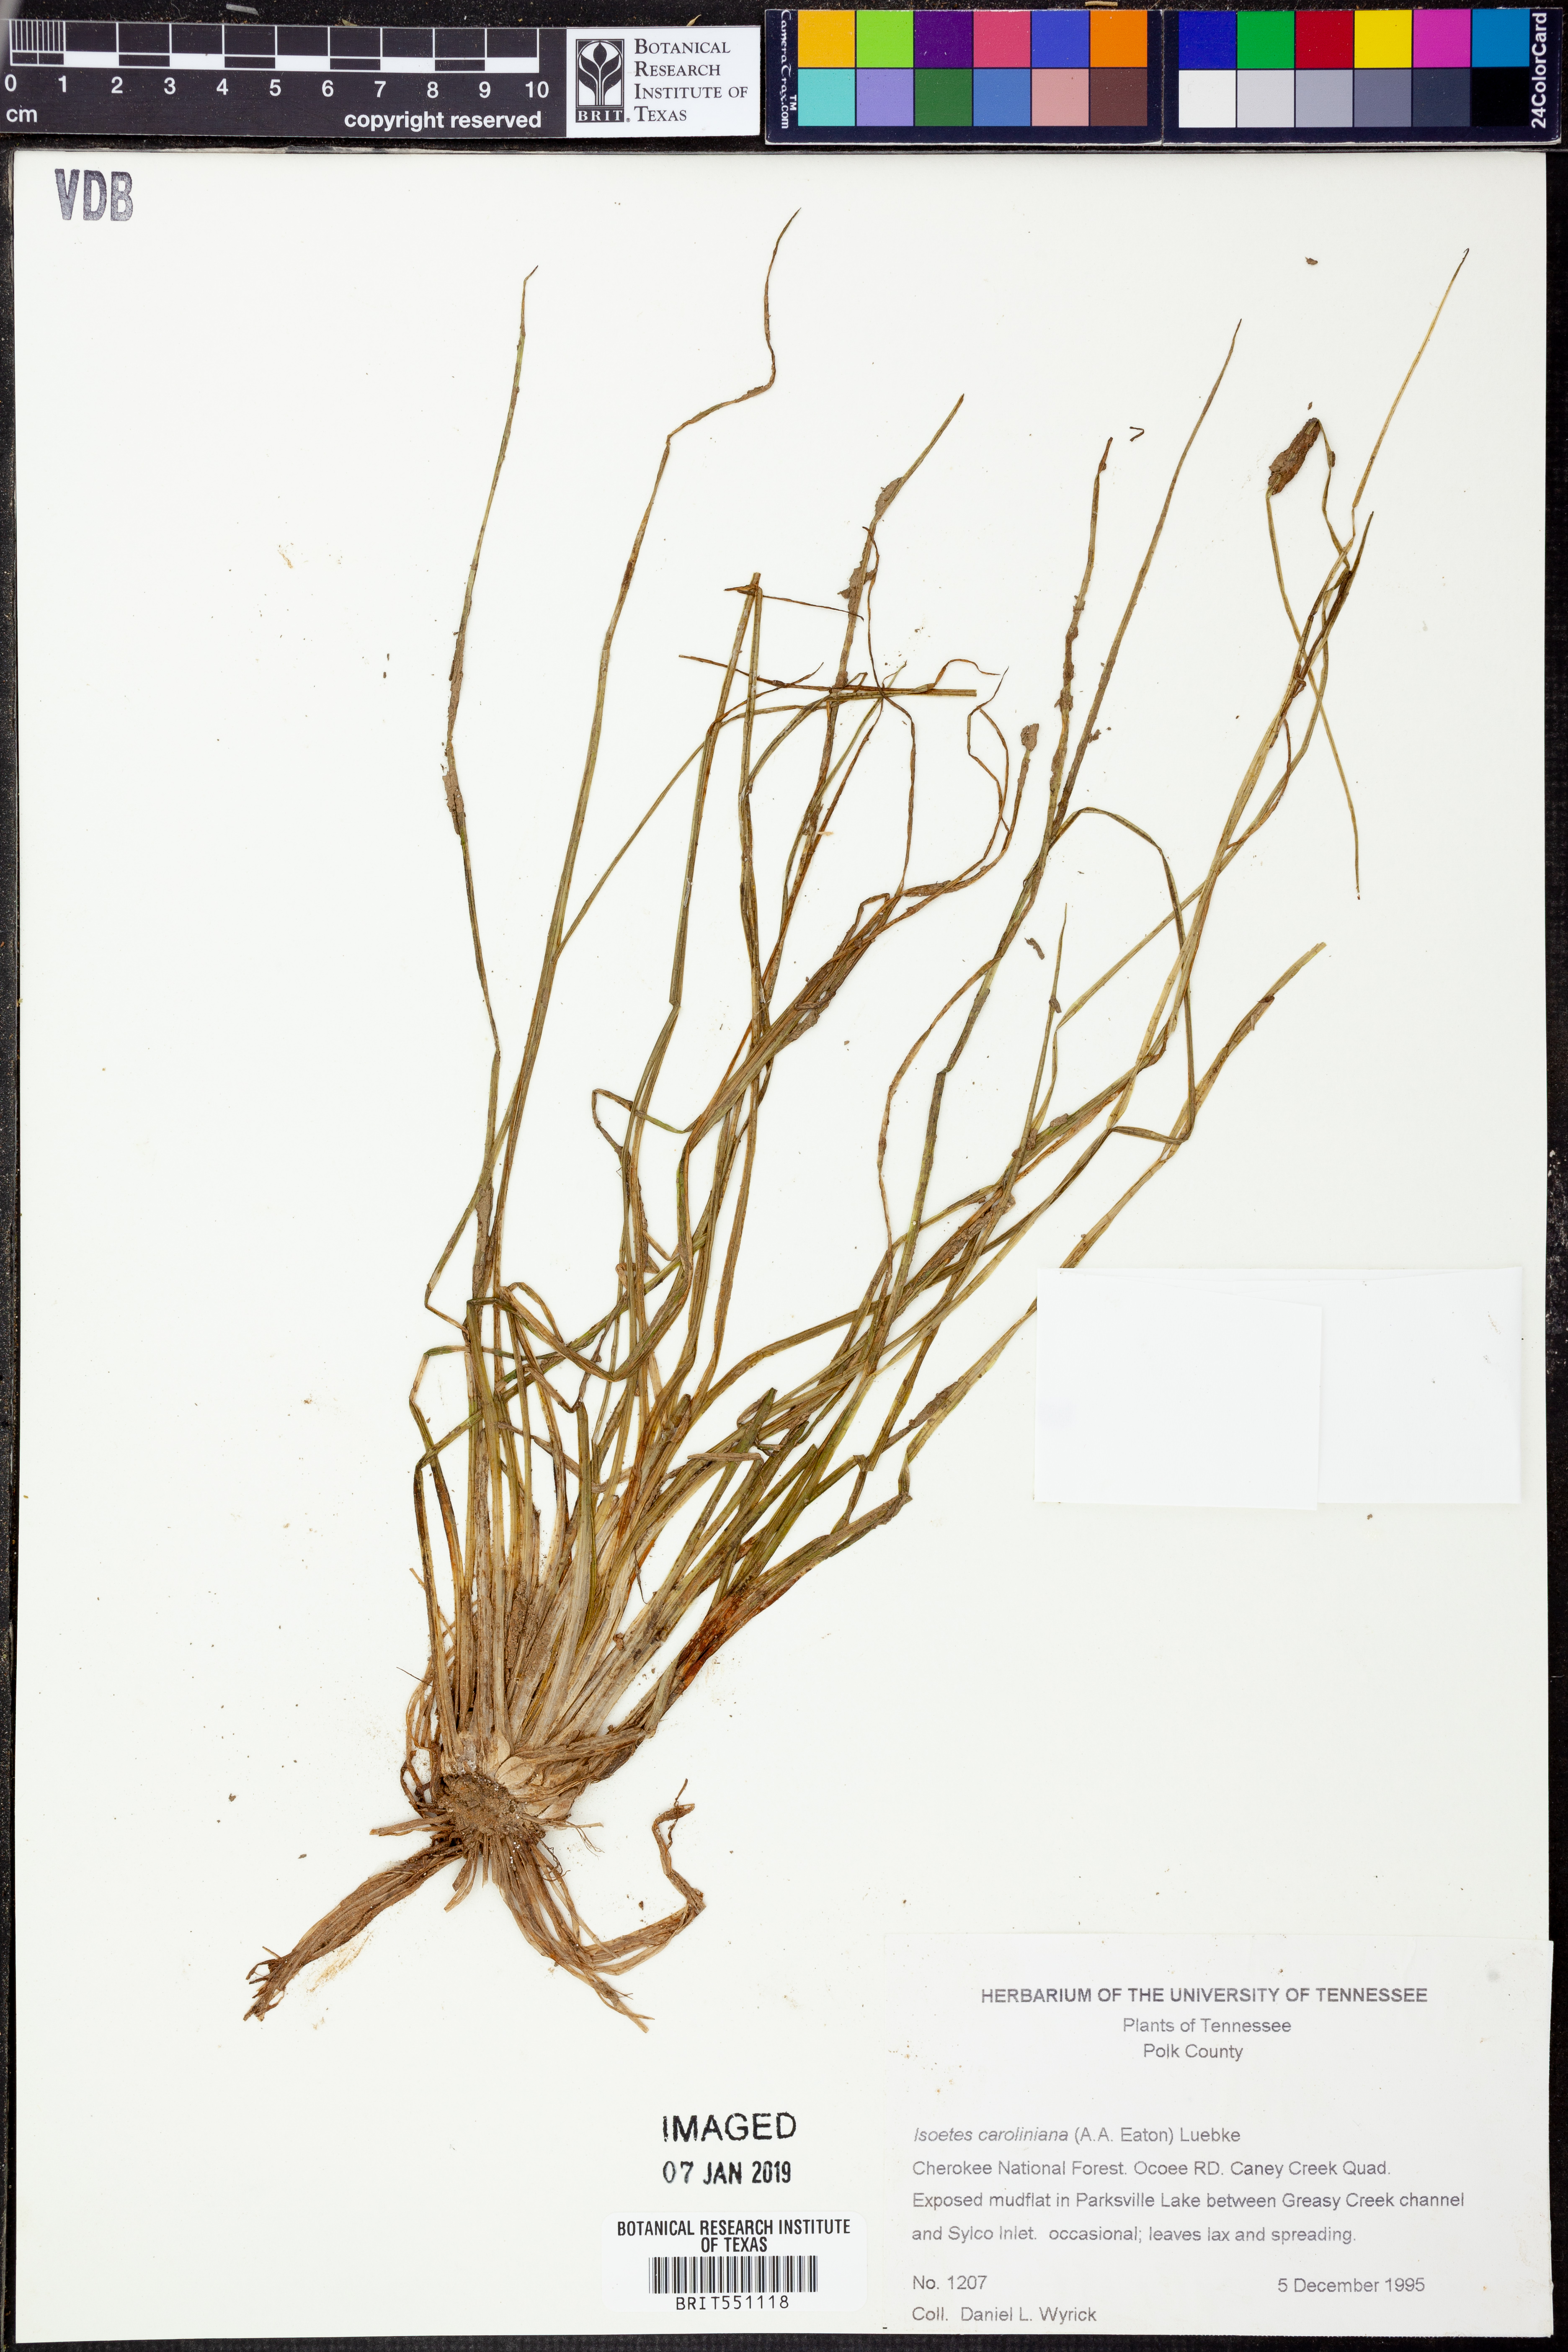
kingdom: Plantae
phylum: Tracheophyta
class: Lycopodiopsida
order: Isoetales
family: Isoetaceae
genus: Isoetes
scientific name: Isoetes caroliniana
